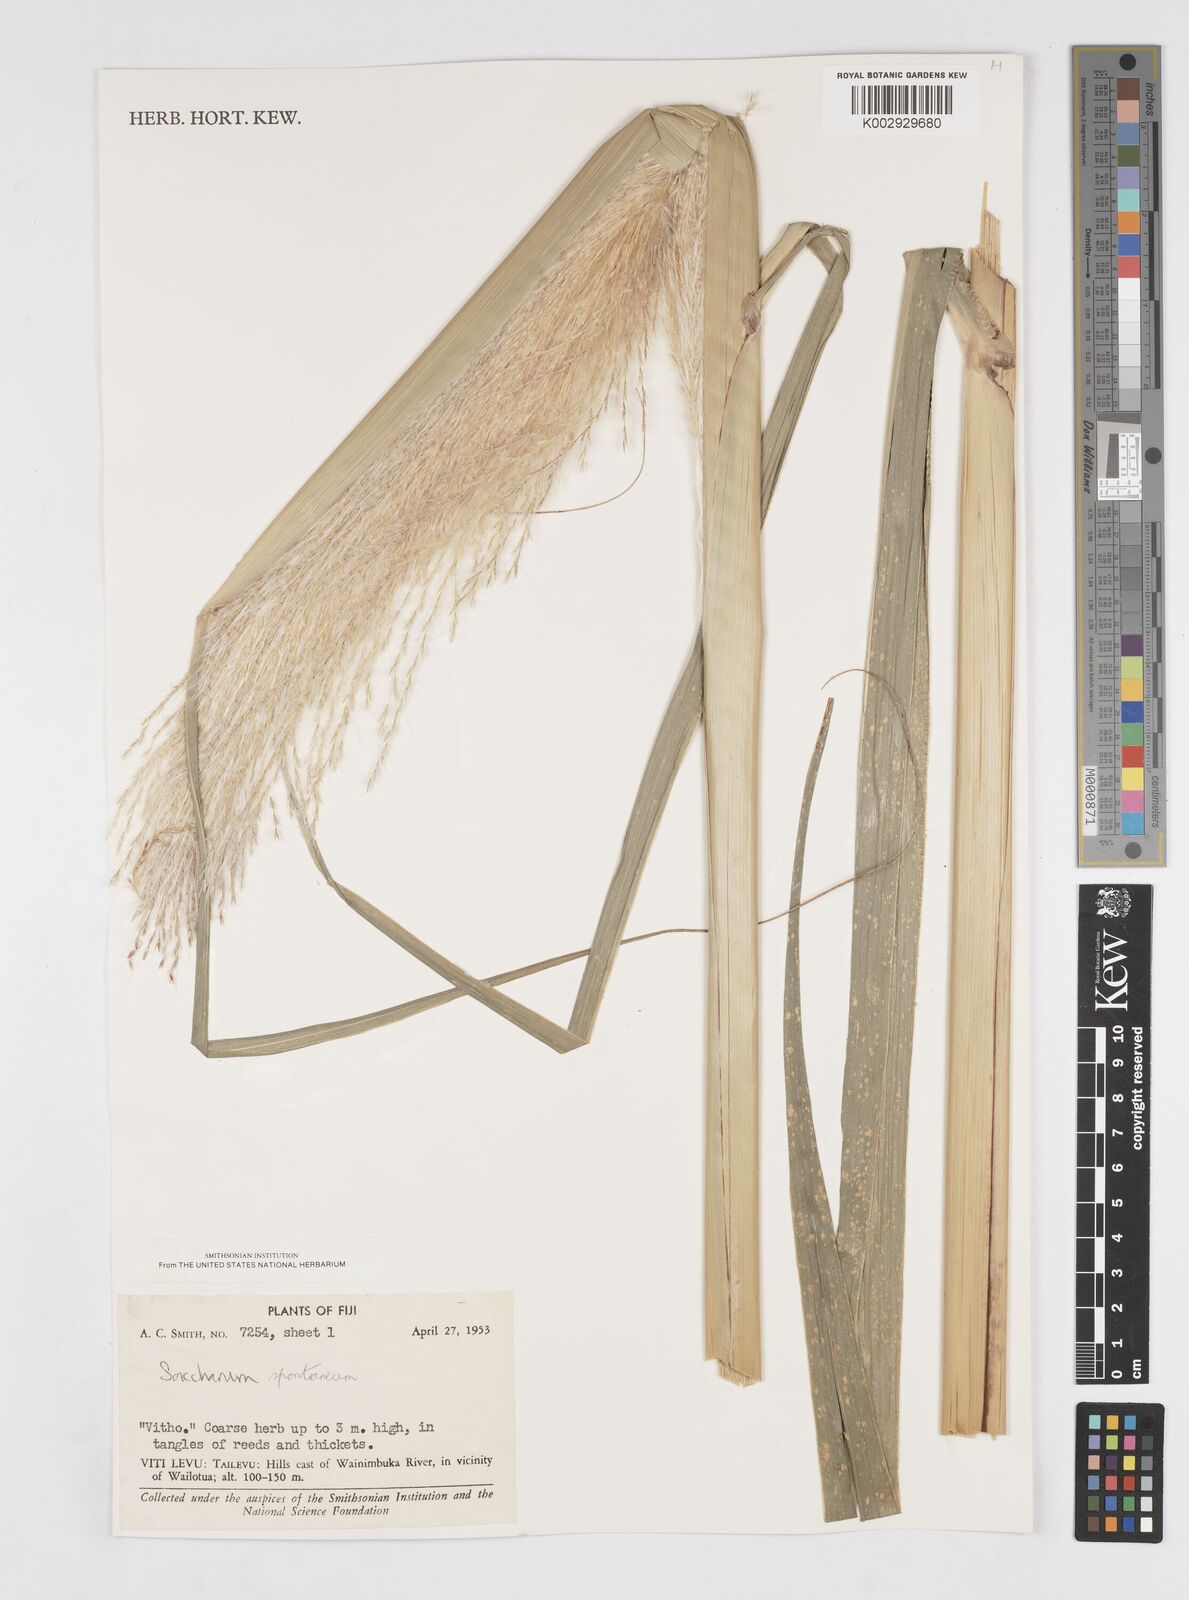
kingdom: Plantae
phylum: Tracheophyta
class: Liliopsida
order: Poales
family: Poaceae
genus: Saccharum
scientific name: Saccharum spontaneum
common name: Wild sugarcane
